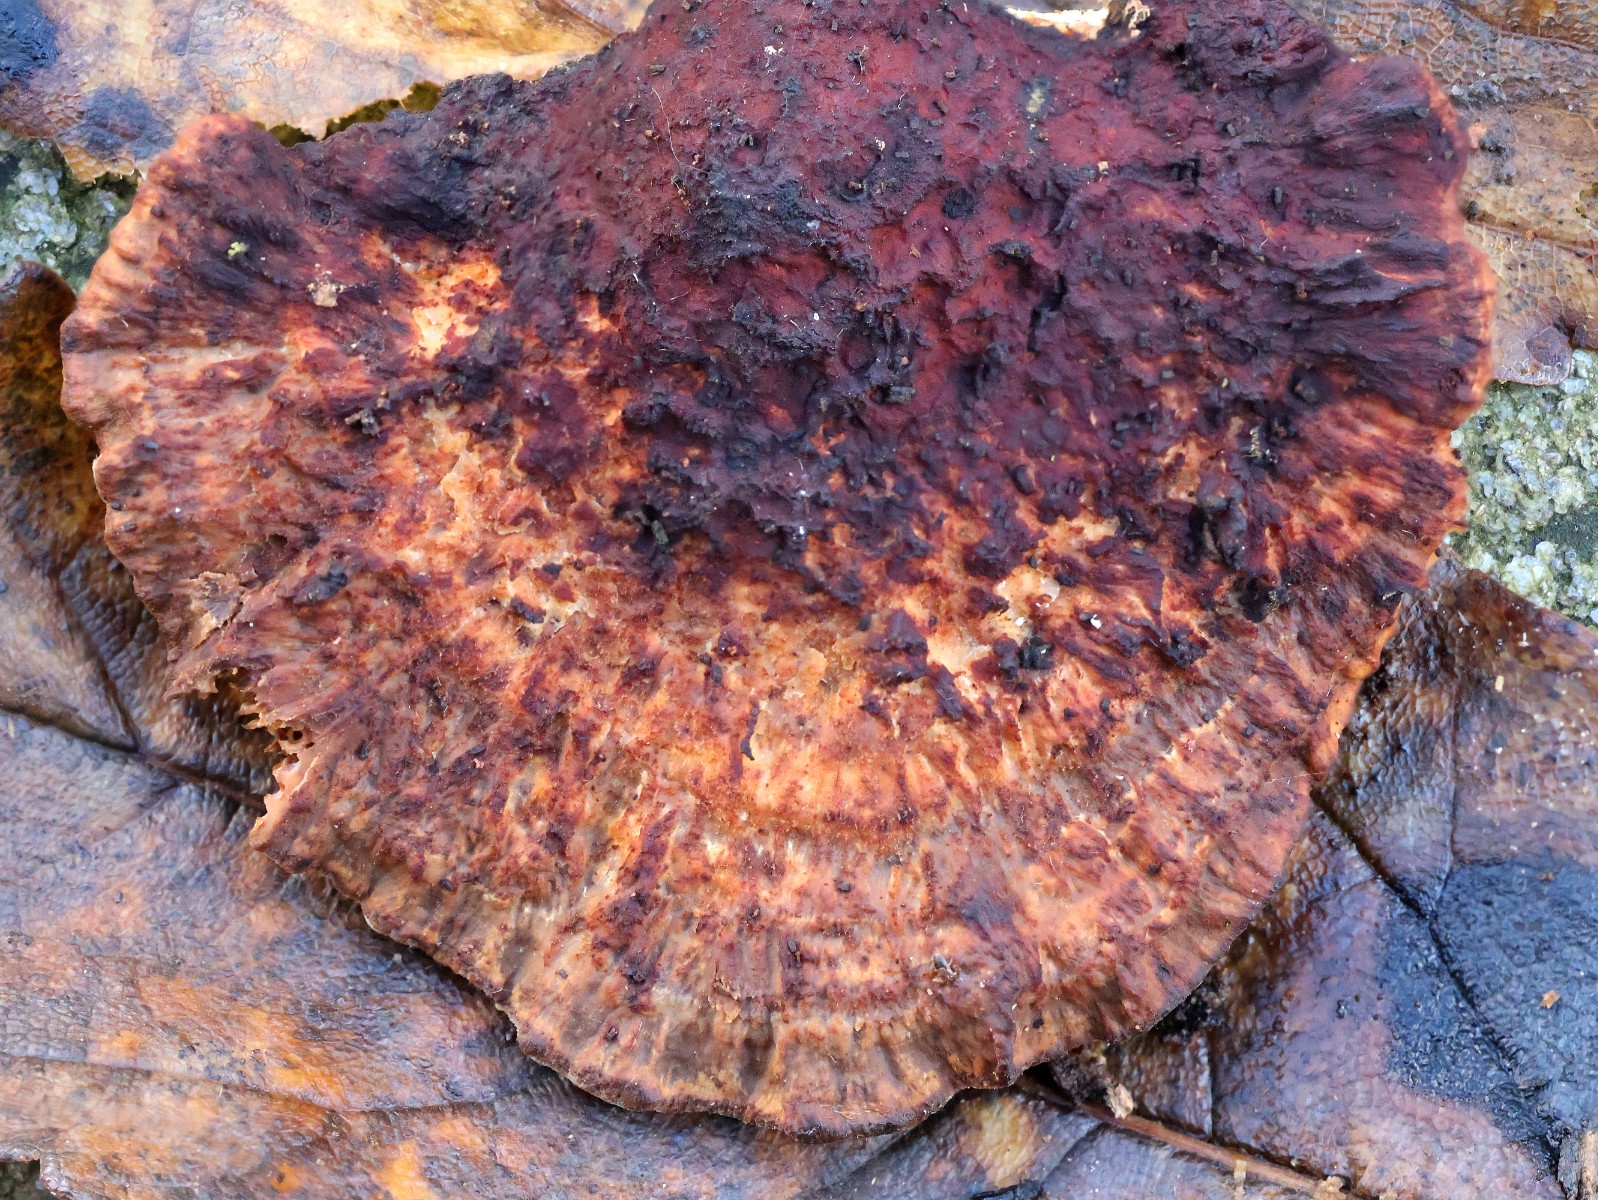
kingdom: Fungi
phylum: Basidiomycota
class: Agaricomycetes
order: Polyporales
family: Polyporaceae
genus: Daedaleopsis
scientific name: Daedaleopsis confragosa
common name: rødmende læderporesvamp
